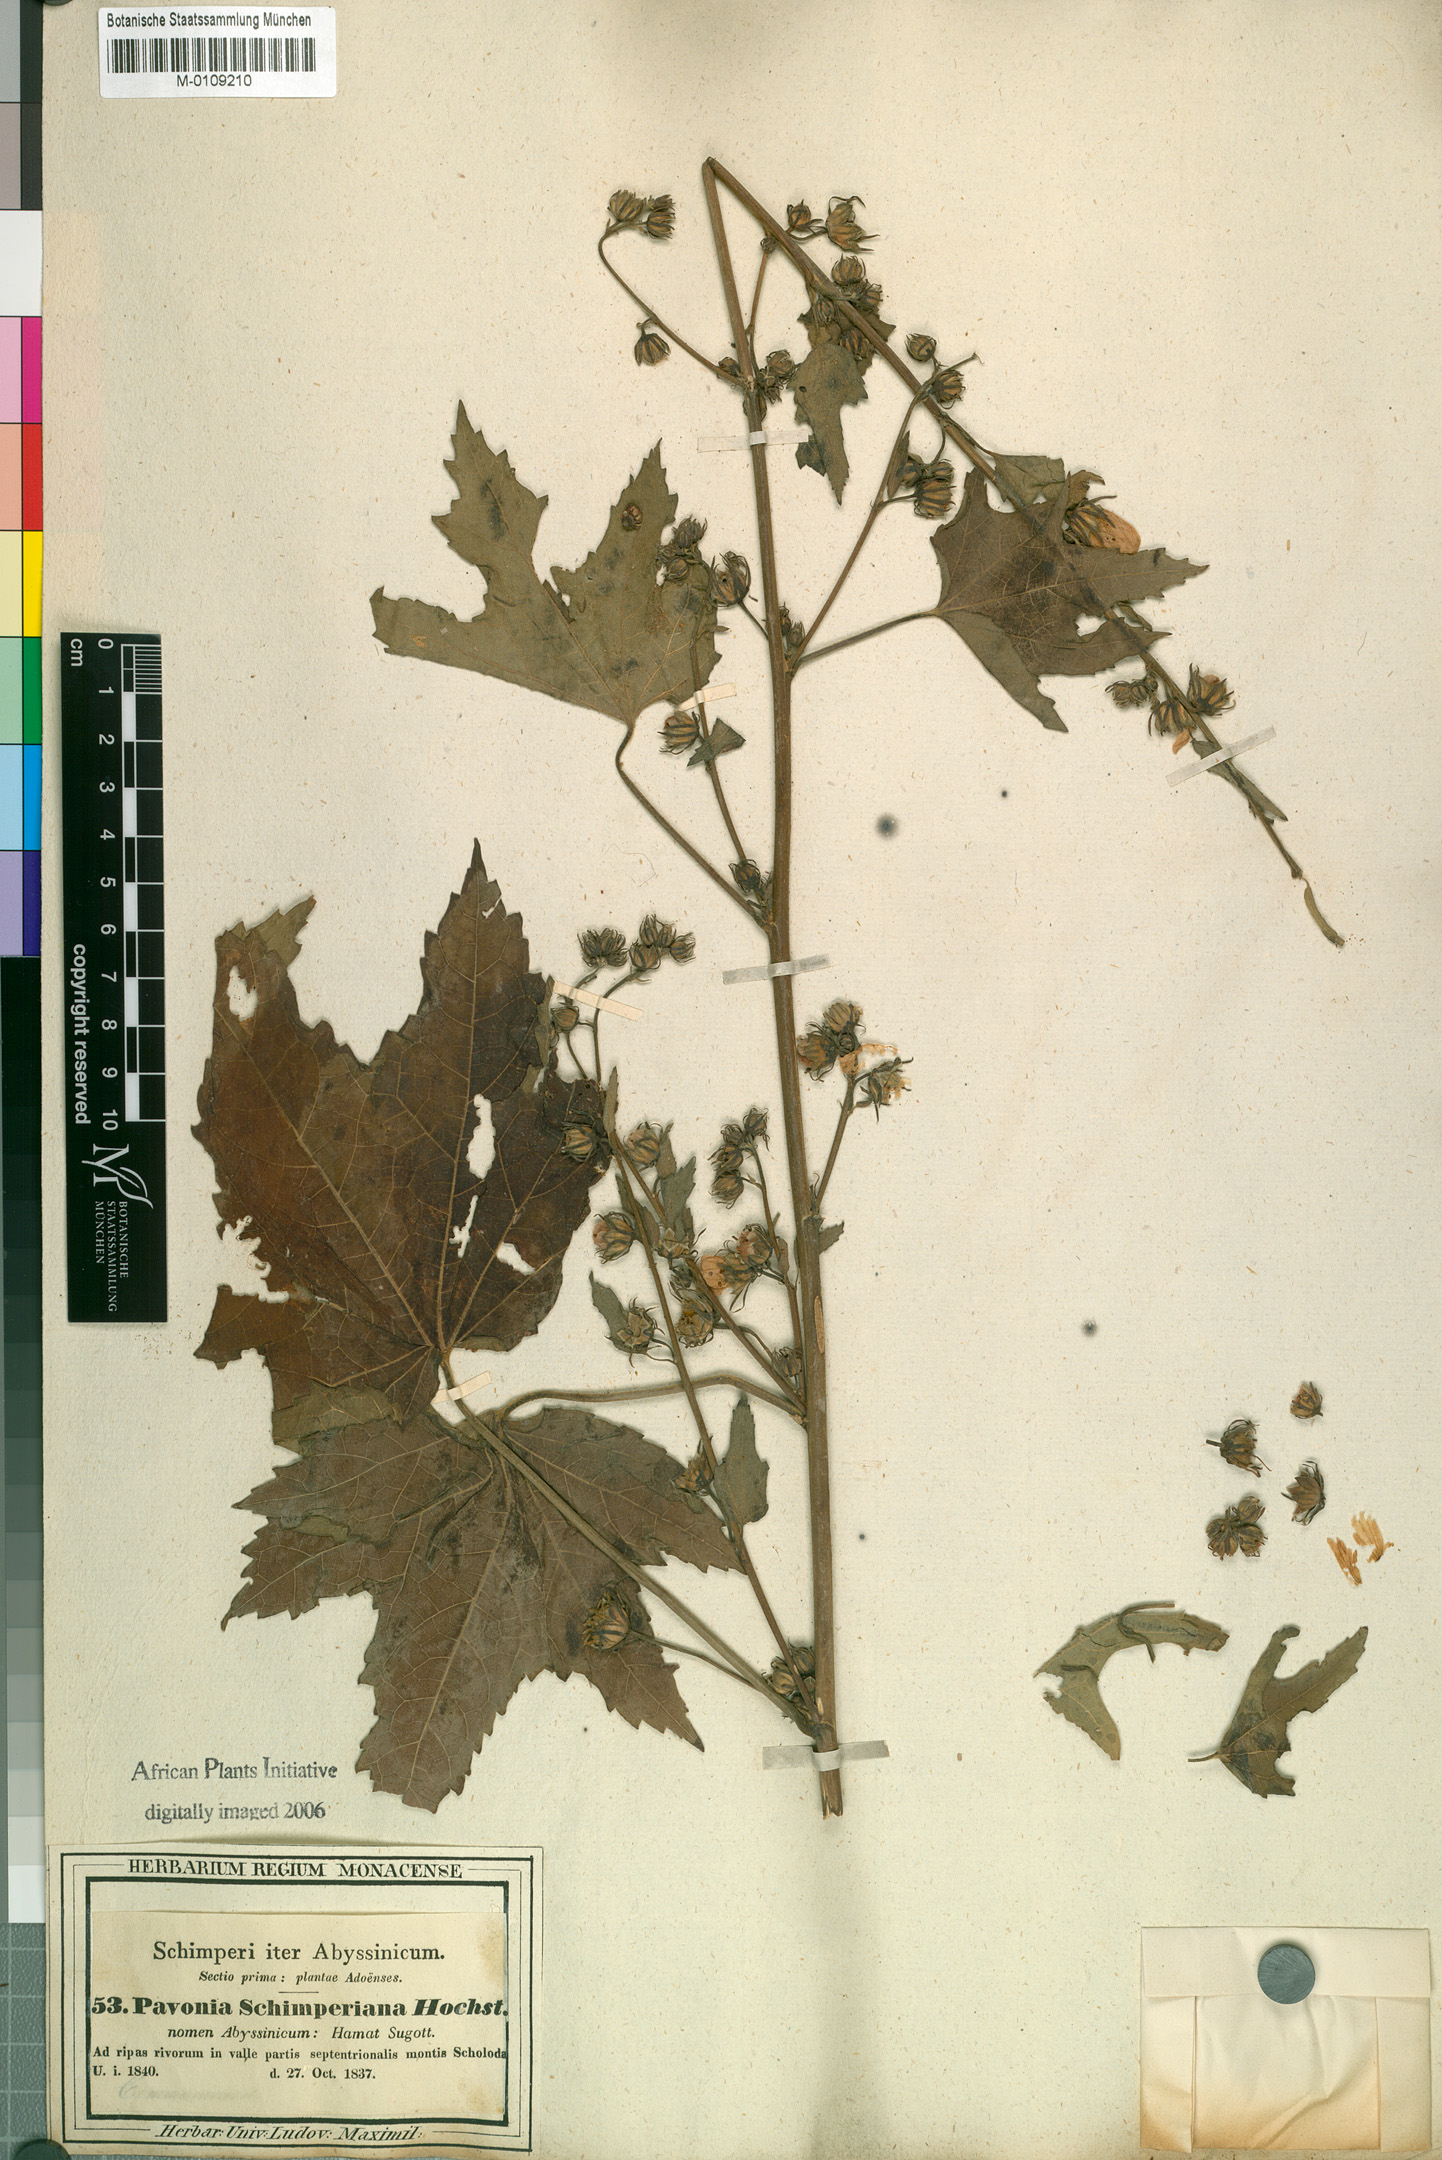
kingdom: Plantae
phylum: Tracheophyta
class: Magnoliopsida
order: Malvales
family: Malvaceae
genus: Pavonia
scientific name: Pavonia schimperiana
